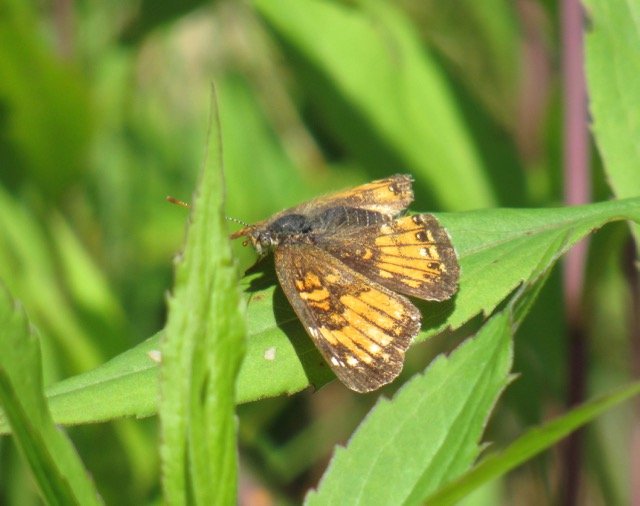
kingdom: Animalia
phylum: Arthropoda
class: Insecta
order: Lepidoptera
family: Nymphalidae
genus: Chlosyne
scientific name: Chlosyne harrisii
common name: Harris's Checkerspot
